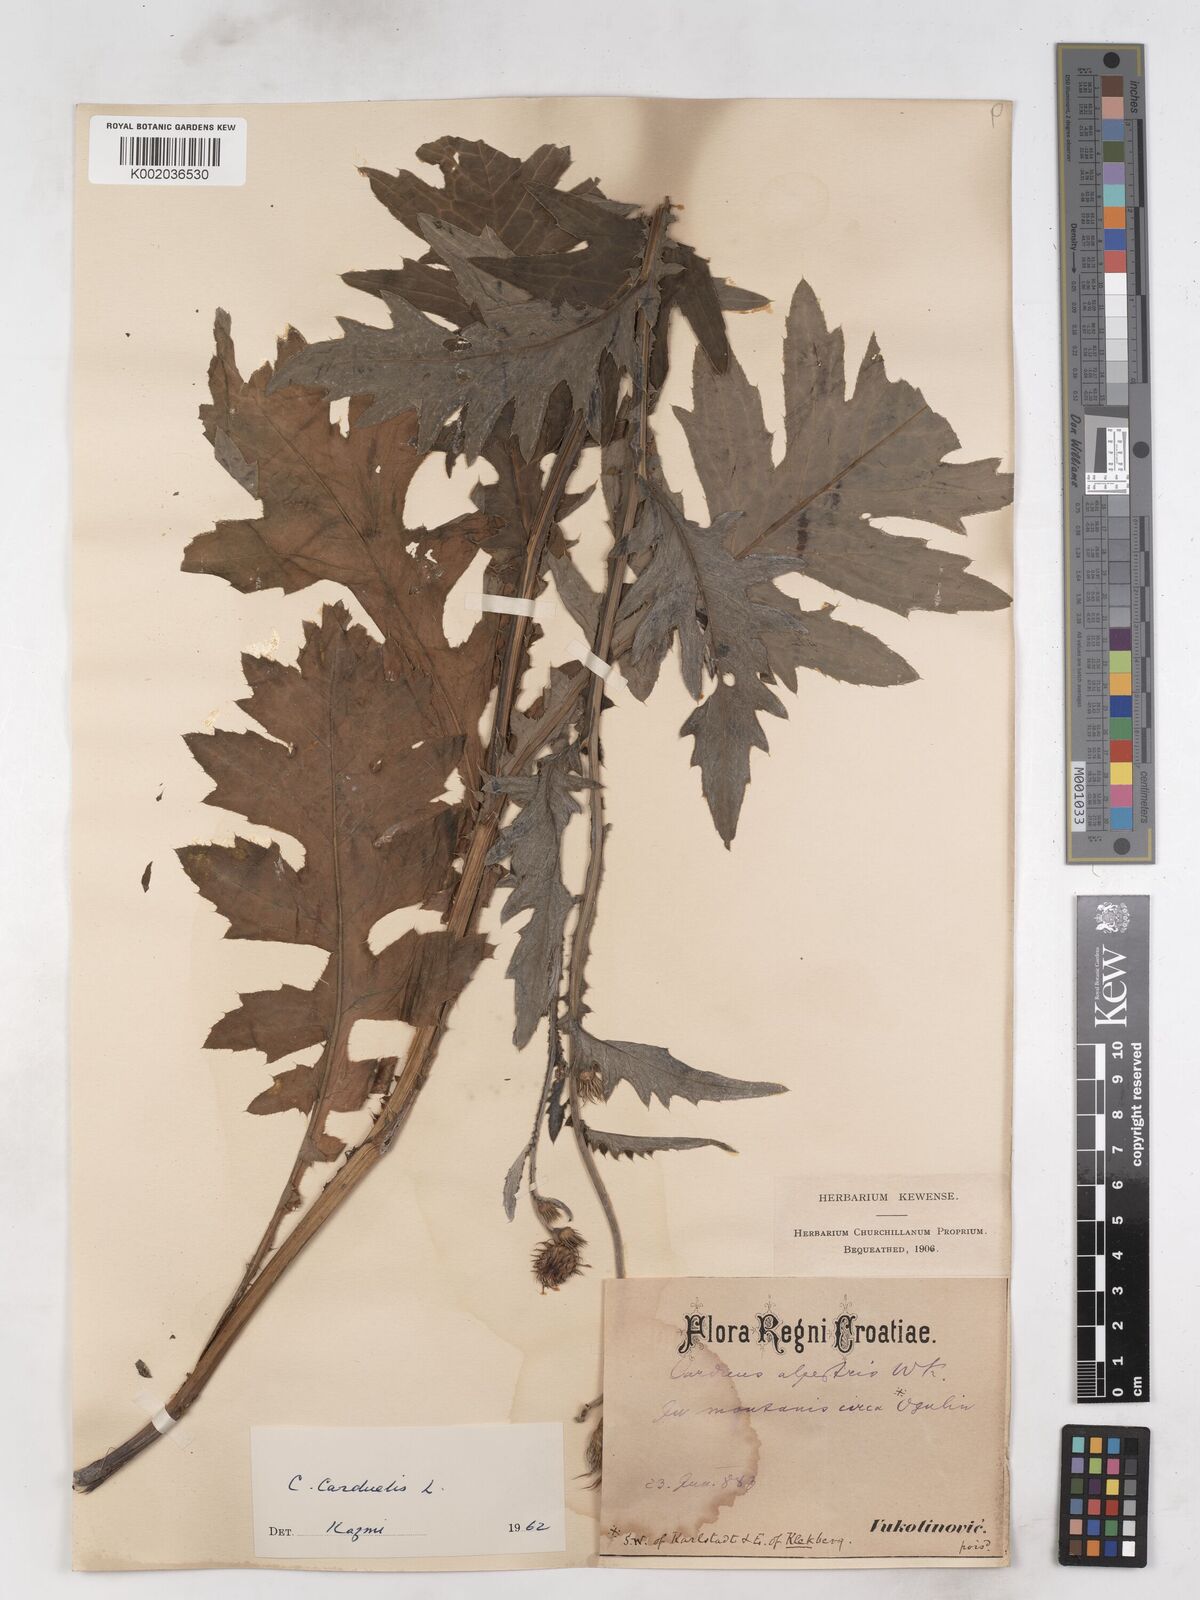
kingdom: Plantae
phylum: Tracheophyta
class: Magnoliopsida
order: Asterales
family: Asteraceae
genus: Carduus
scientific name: Carduus carduelis
